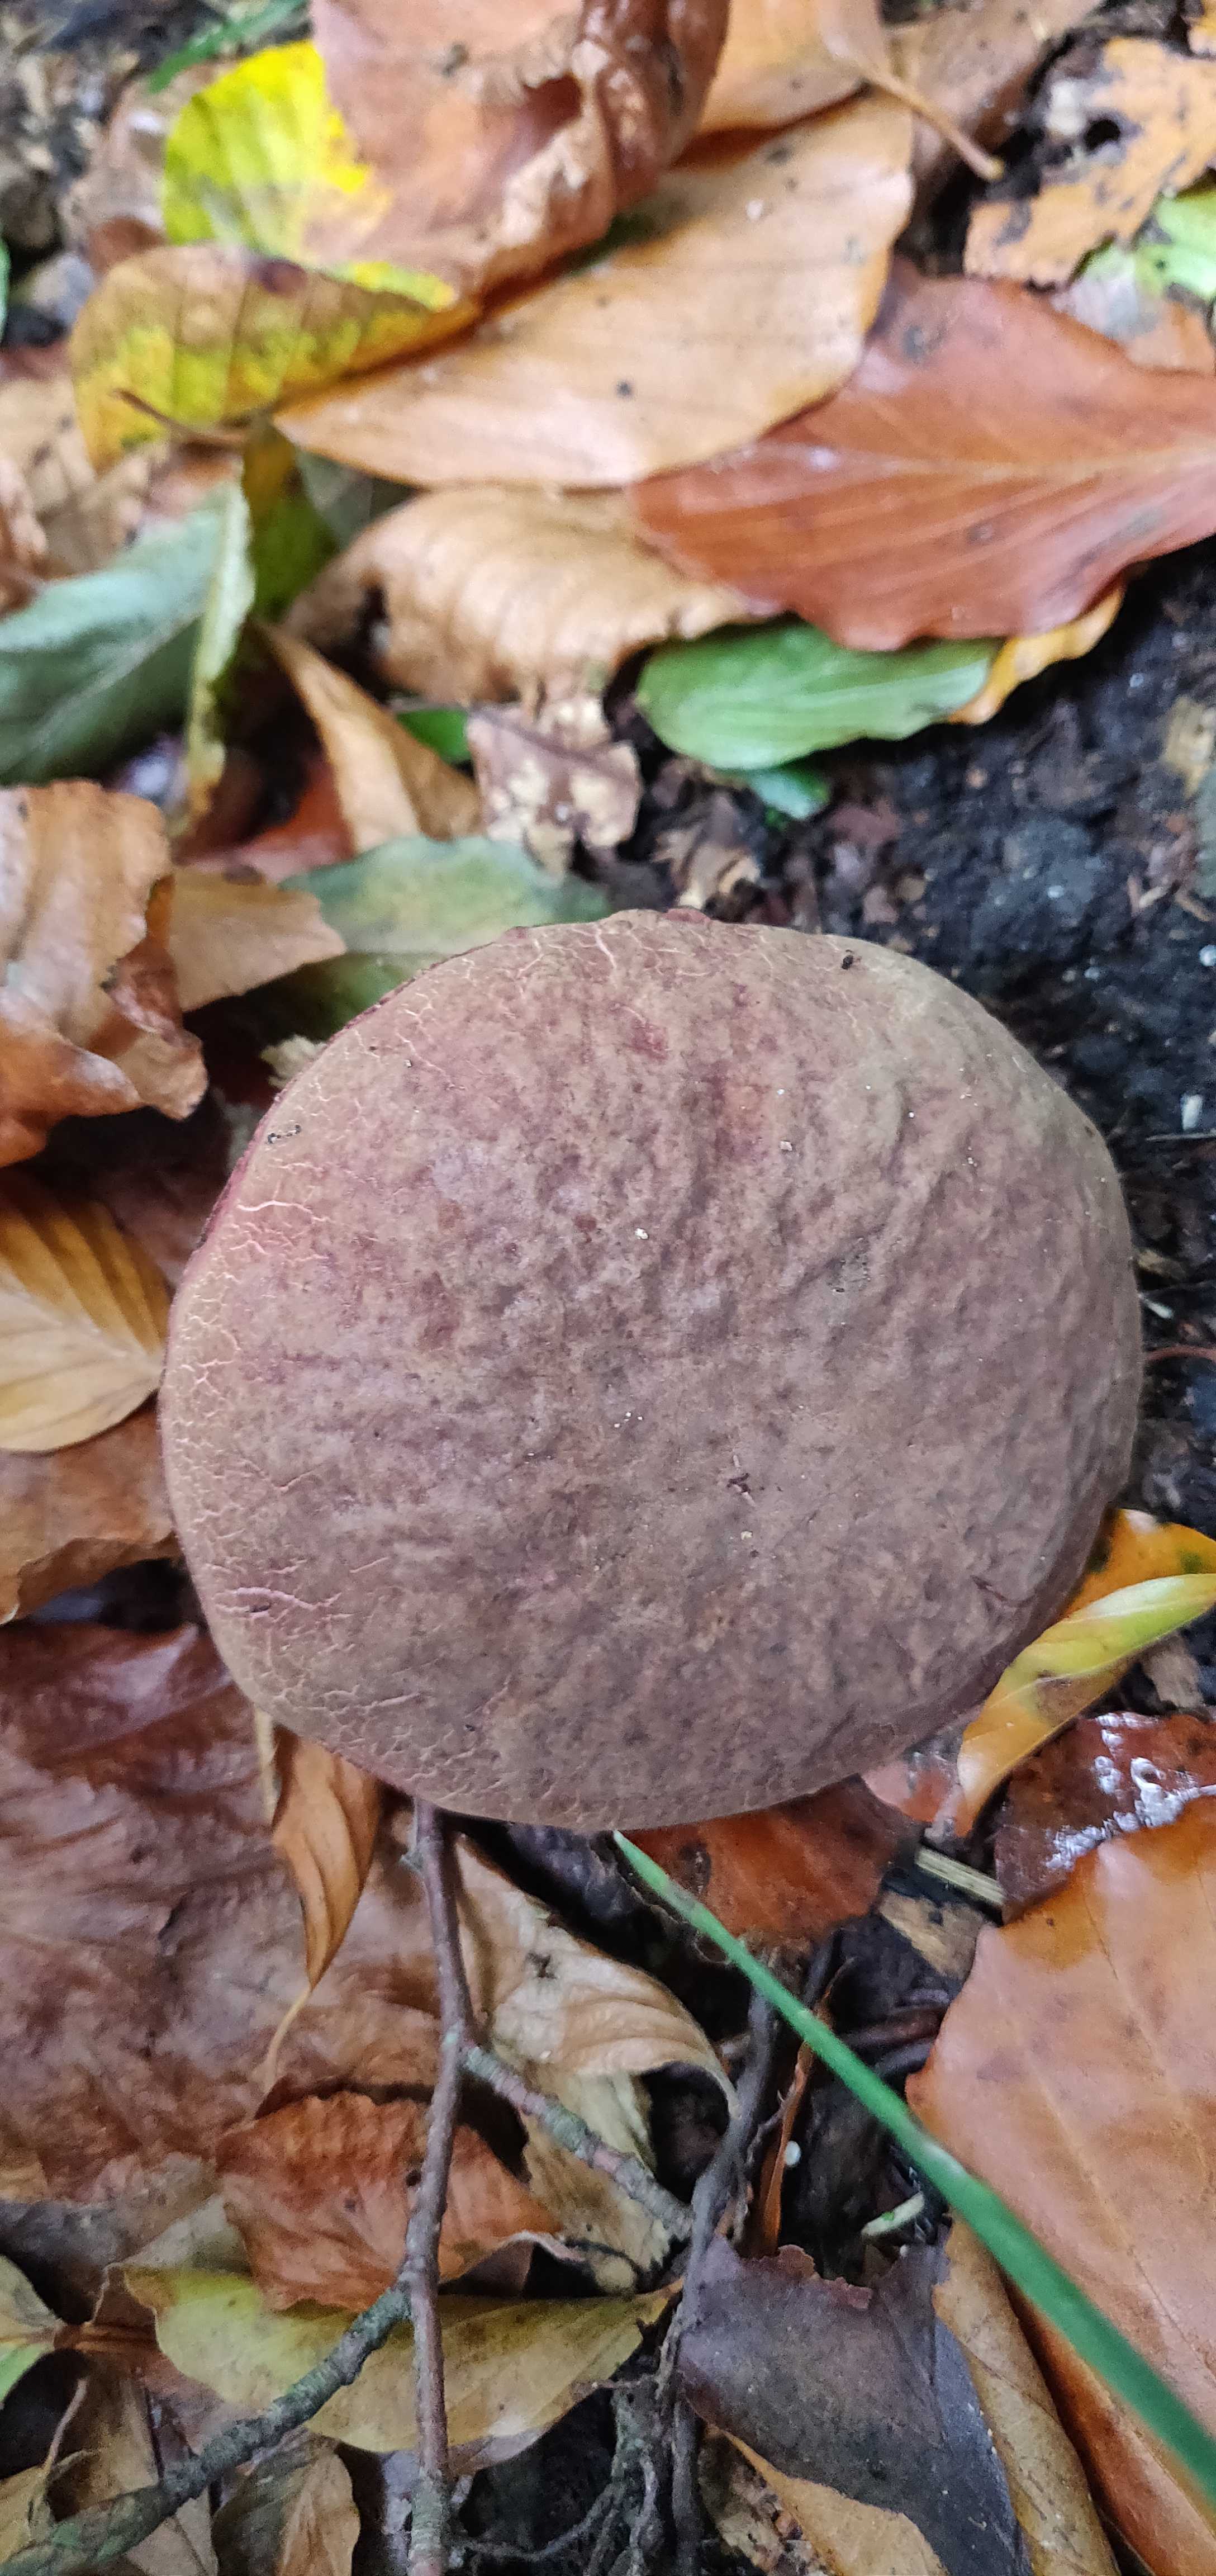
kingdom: Fungi
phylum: Basidiomycota
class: Agaricomycetes
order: Boletales
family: Boletaceae
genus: Xerocomellus
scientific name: Xerocomellus pruinatus
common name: dugget rørhat
